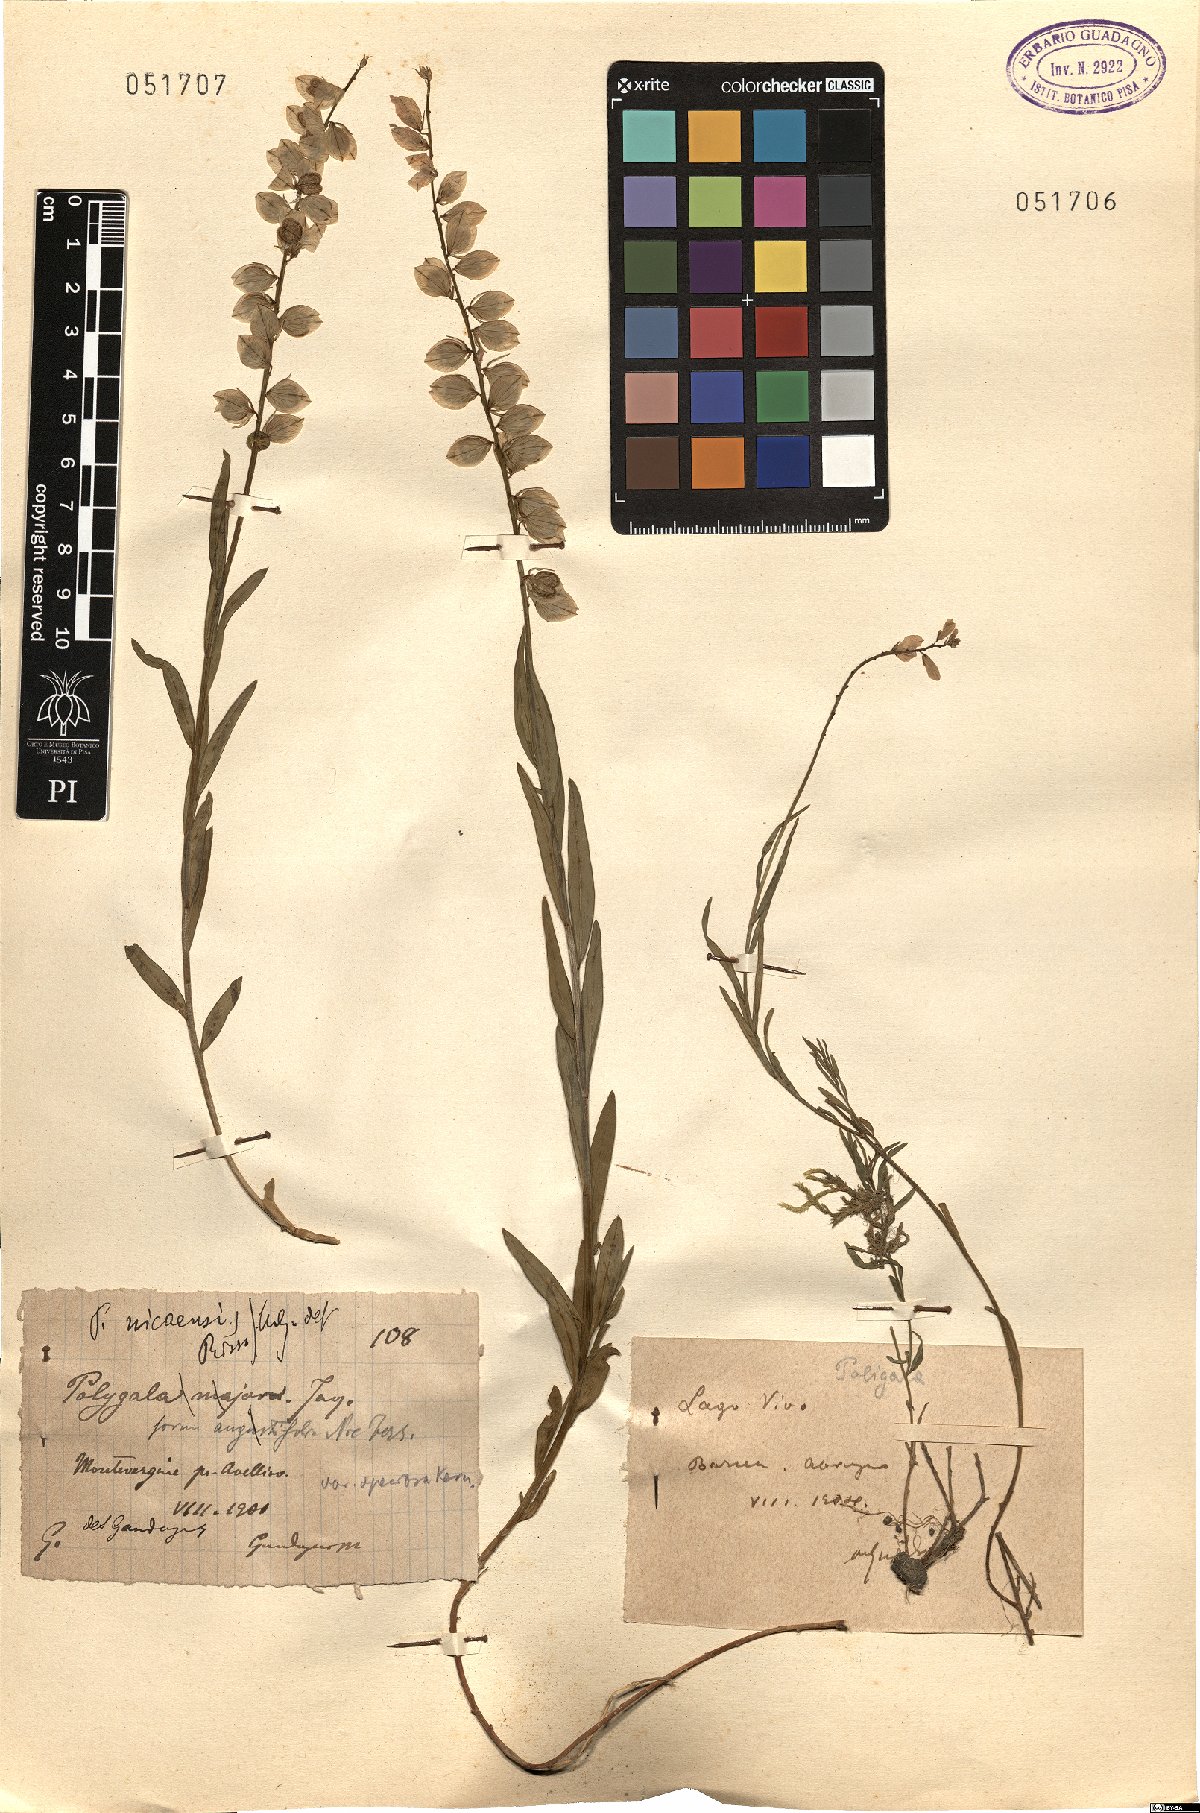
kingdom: Plantae
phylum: Tracheophyta
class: Magnoliopsida
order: Fabales
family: Polygalaceae
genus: Polygala
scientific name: Polygala
